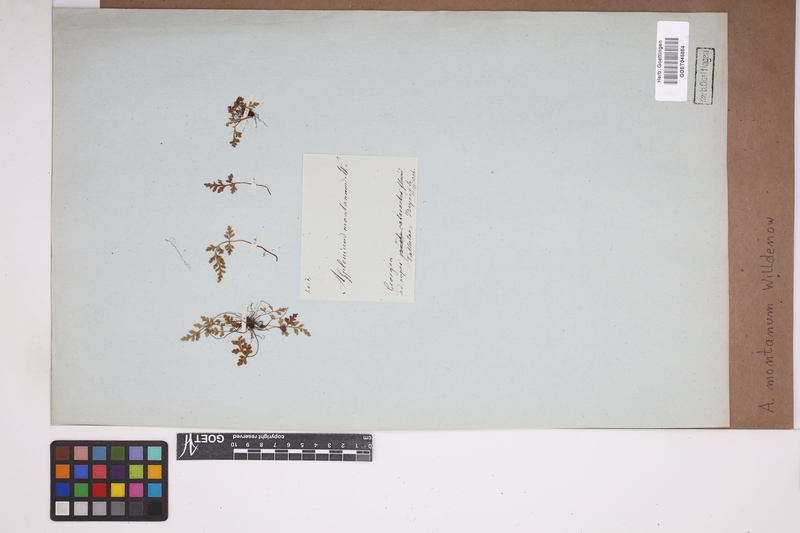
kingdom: Plantae
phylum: Tracheophyta
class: Polypodiopsida
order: Polypodiales
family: Aspleniaceae
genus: Asplenium
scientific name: Asplenium montanum
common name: Mountain spleenwort
